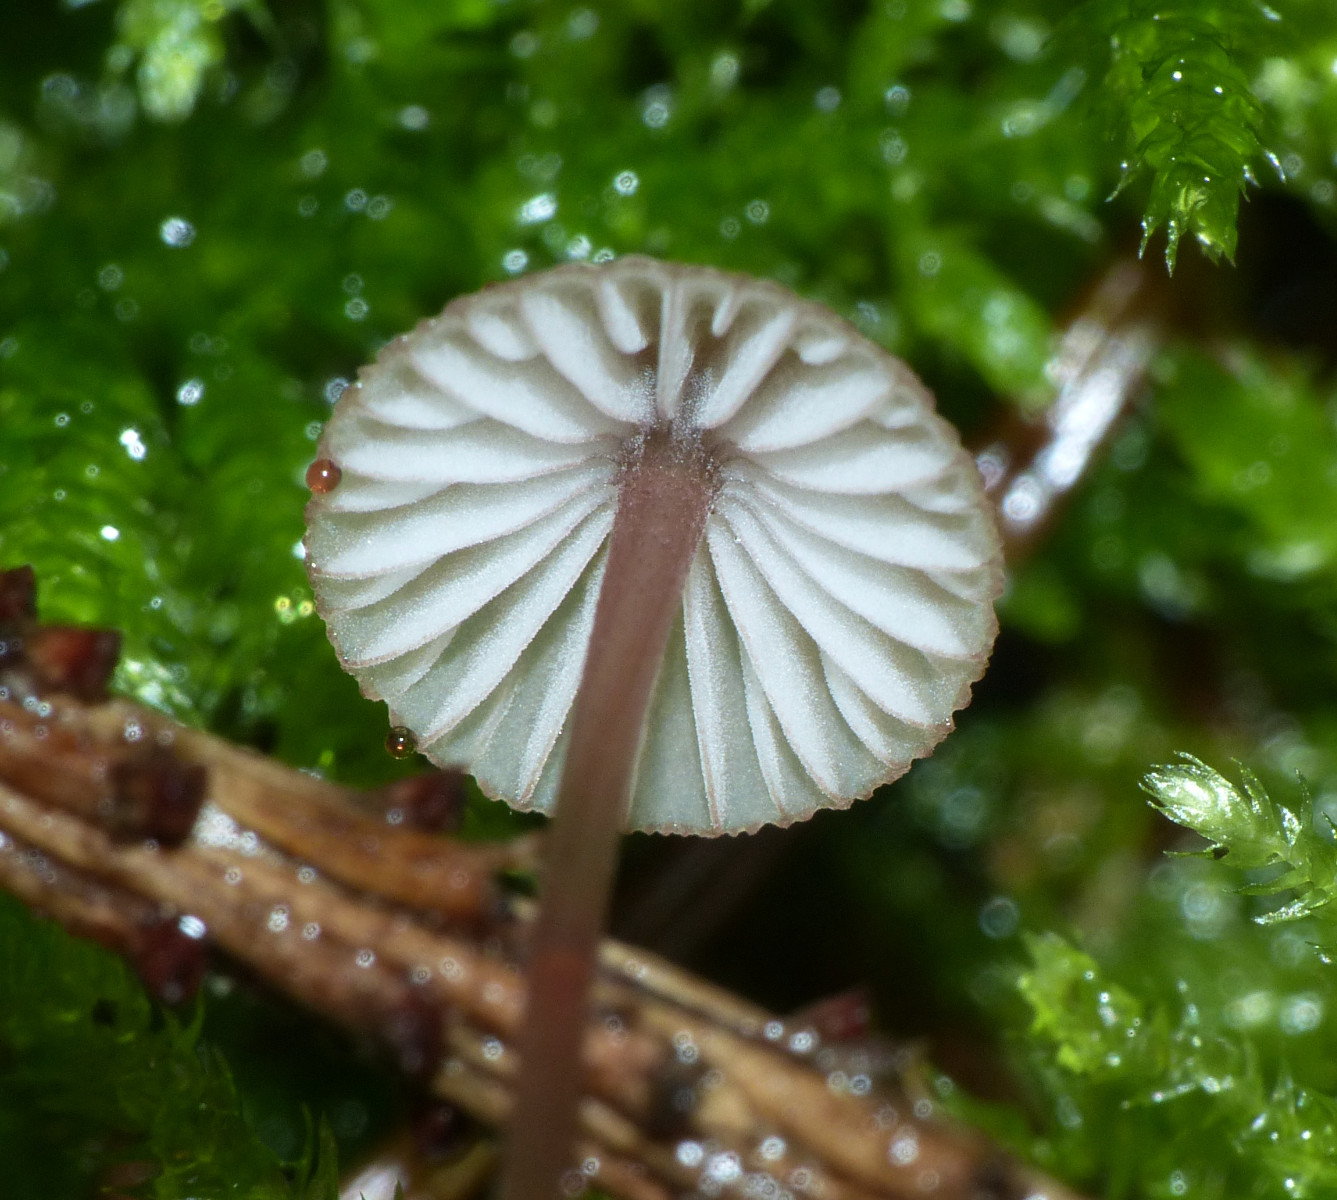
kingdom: Fungi
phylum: Basidiomycota
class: Agaricomycetes
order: Agaricales
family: Mycenaceae
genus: Mycena
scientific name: Mycena sanguinolenta
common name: rødmælket huesvamp
